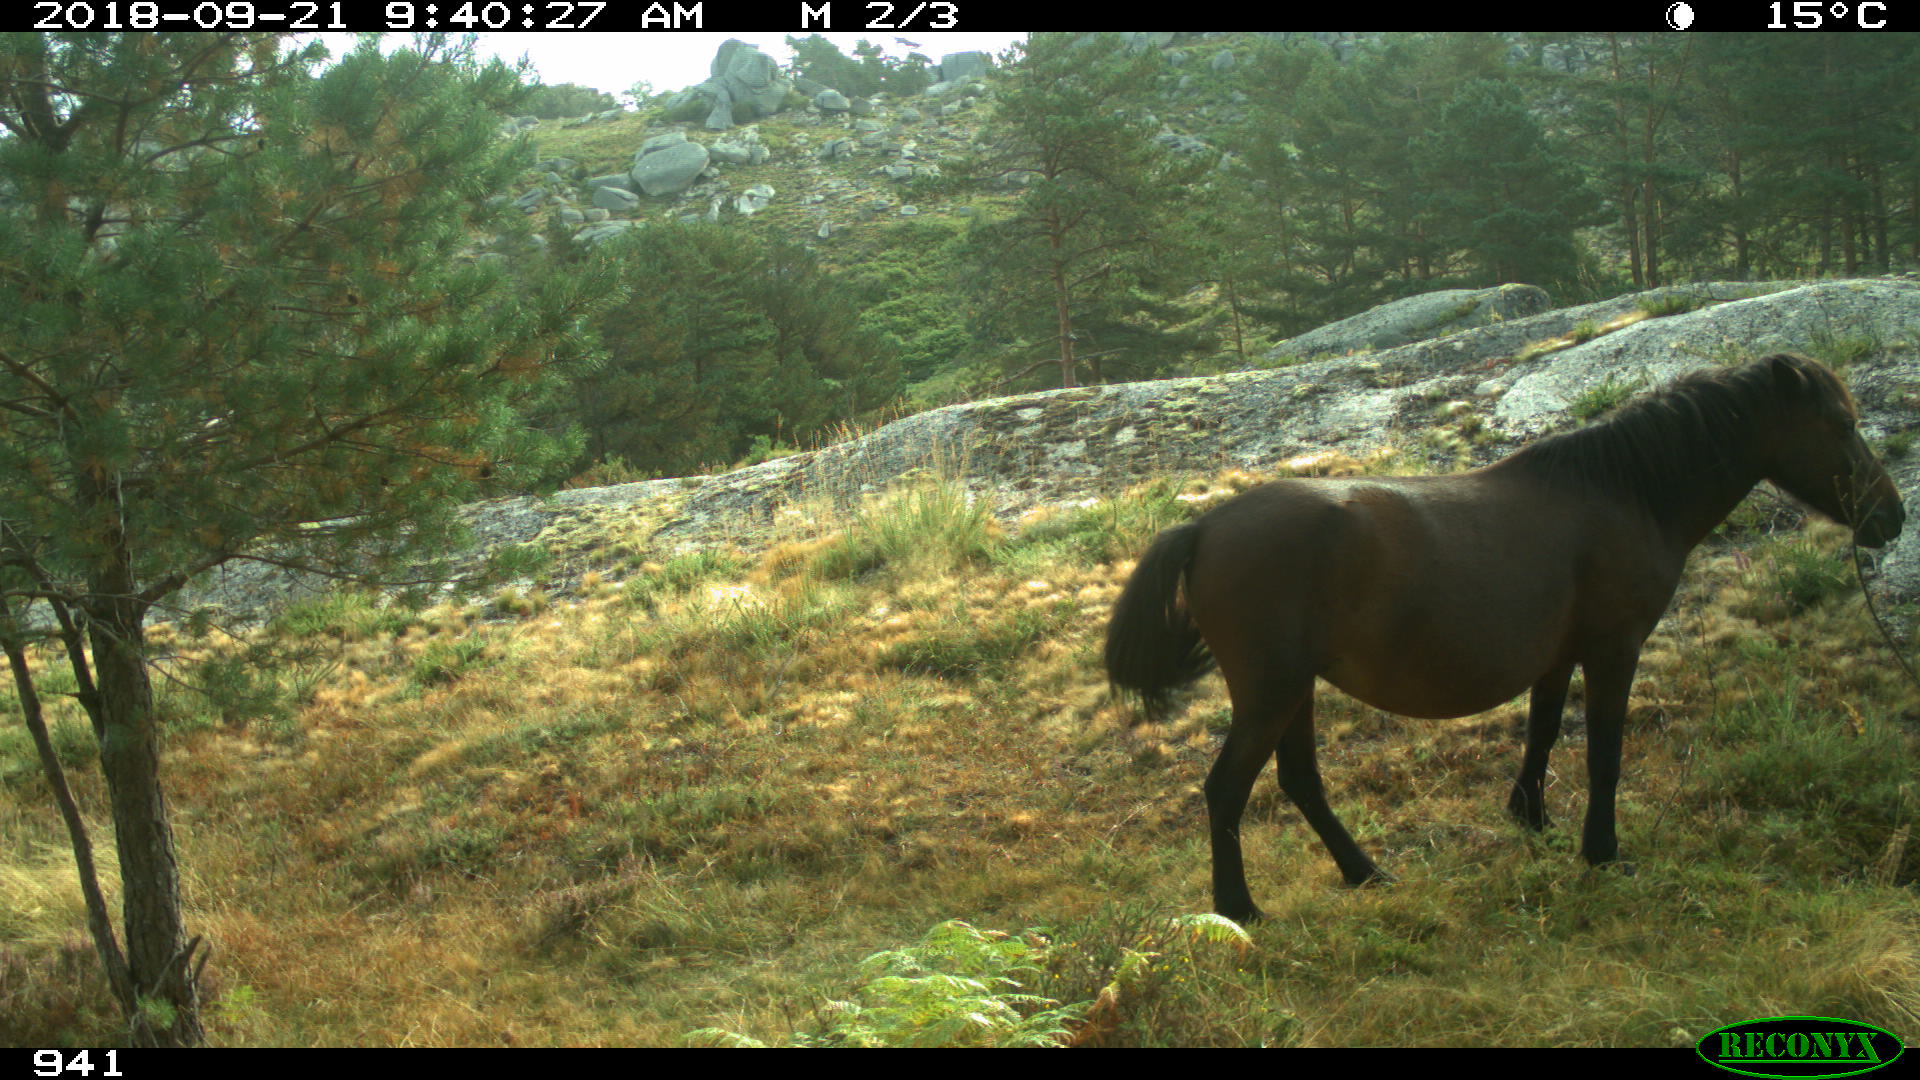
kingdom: Animalia
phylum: Chordata
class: Mammalia
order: Perissodactyla
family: Equidae
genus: Equus
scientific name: Equus caballus
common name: Horse
